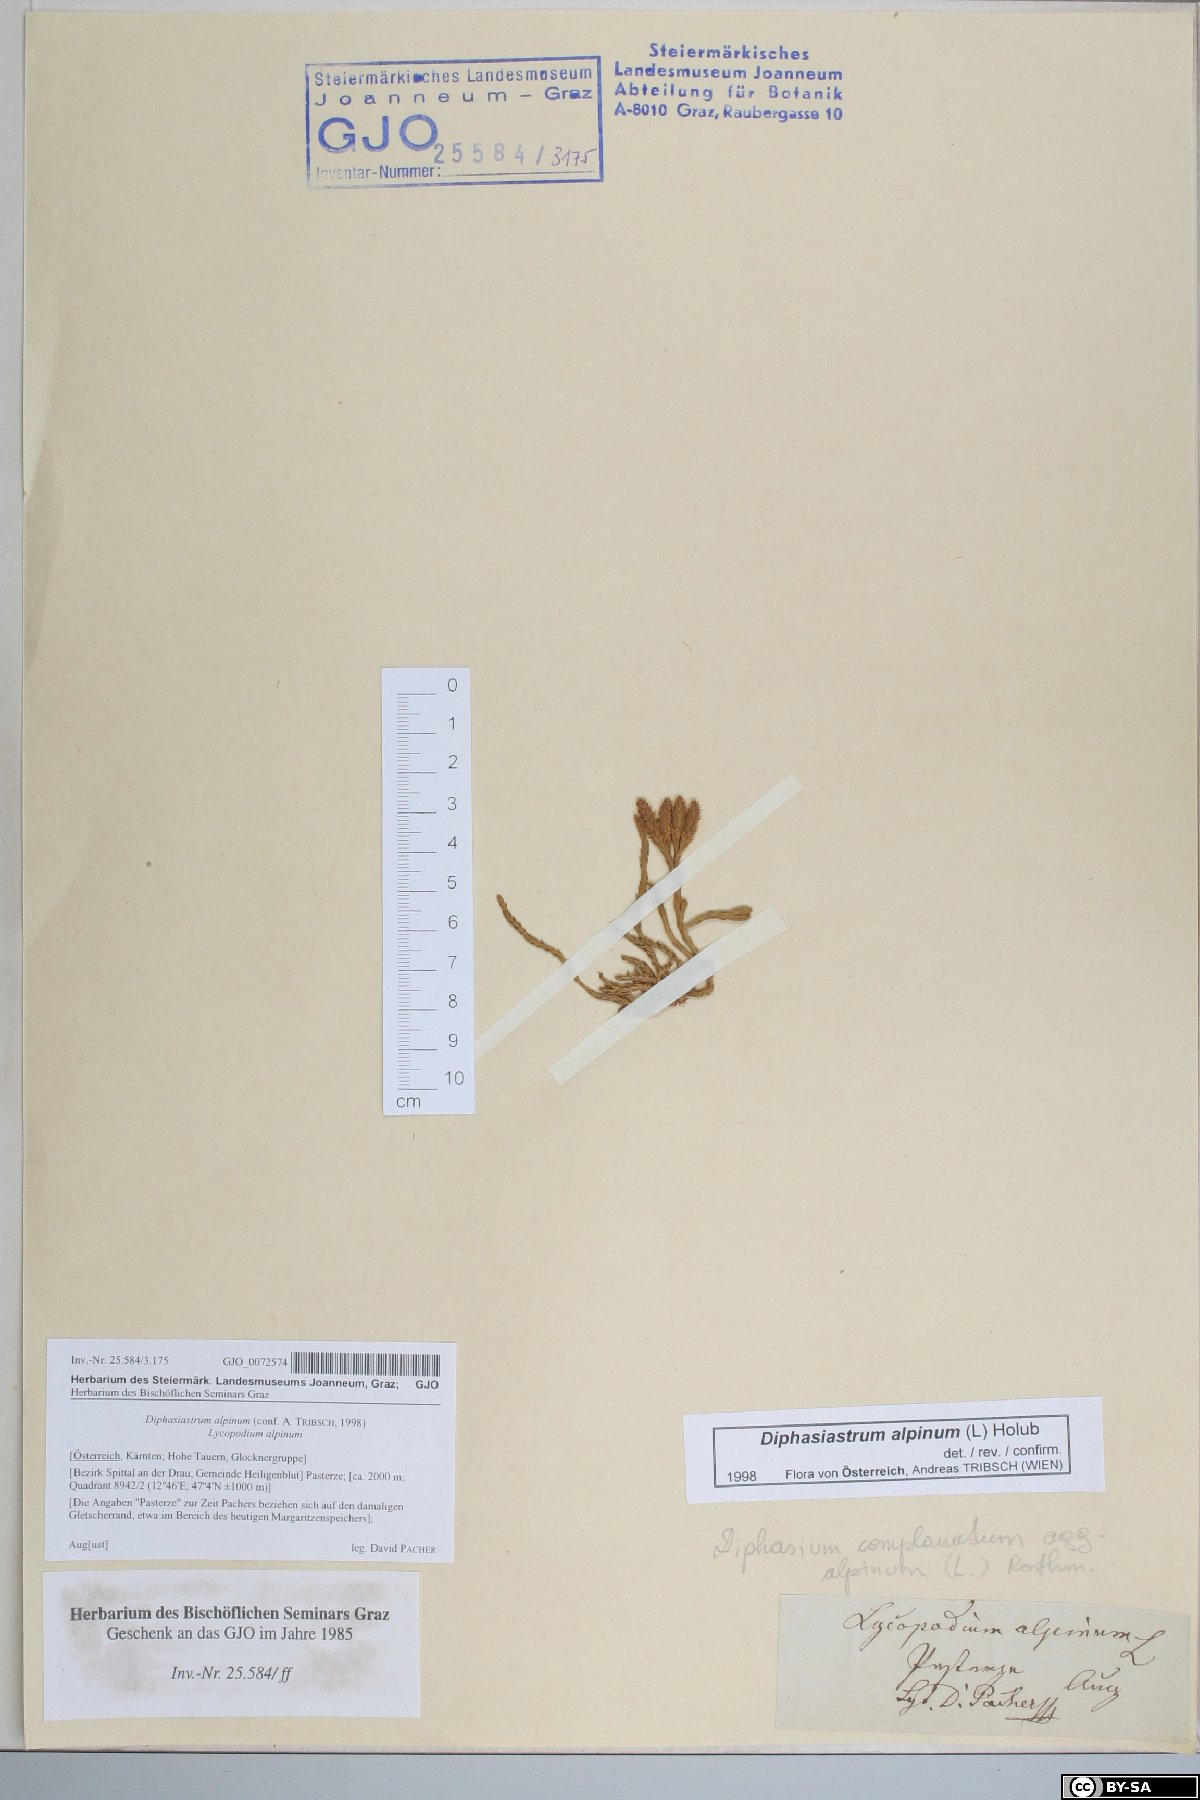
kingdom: Plantae
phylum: Tracheophyta
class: Lycopodiopsida
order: Lycopodiales
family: Lycopodiaceae
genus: Diphasiastrum
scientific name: Diphasiastrum alpinum
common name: Alpine clubmoss
